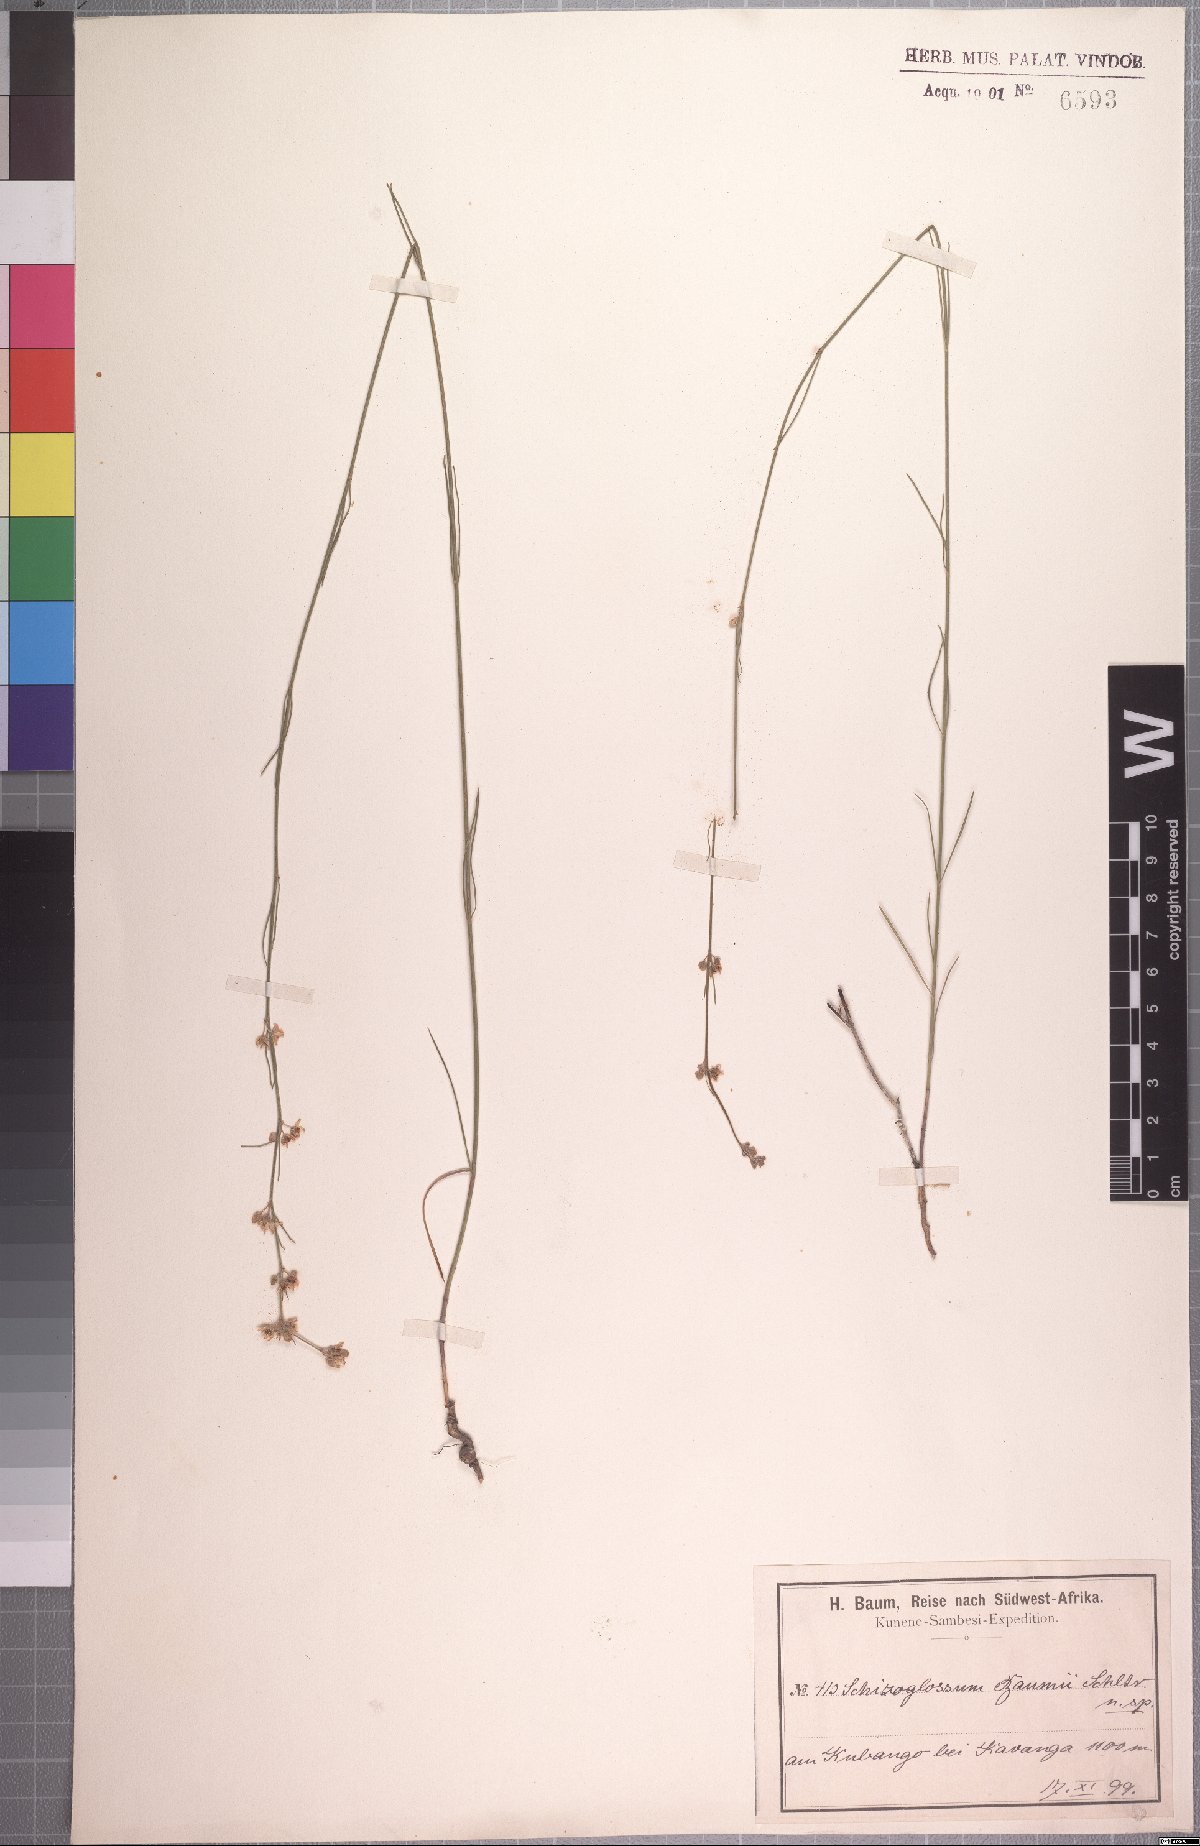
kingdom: Plantae
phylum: Tracheophyta
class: Magnoliopsida
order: Gentianales
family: Apocynaceae
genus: Aspidoglossum
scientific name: Aspidoglossum masaicum
